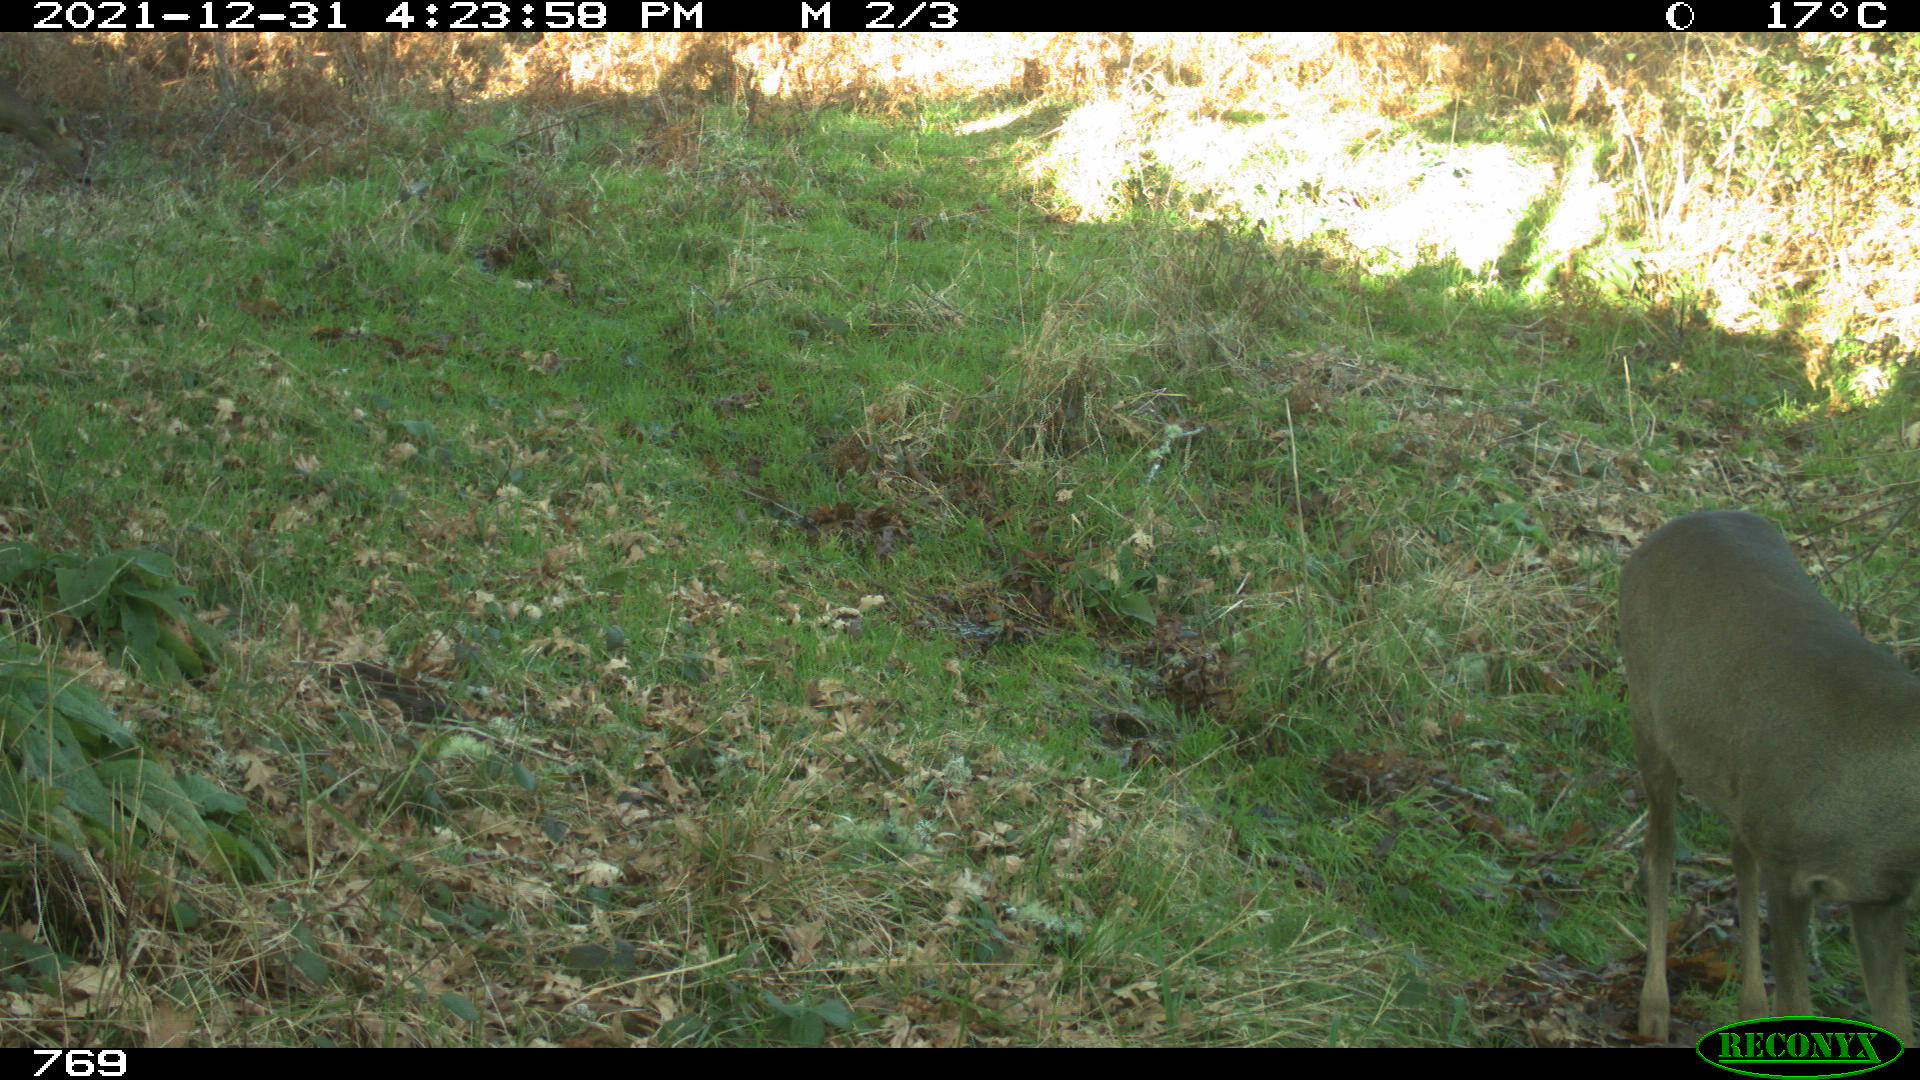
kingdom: Animalia
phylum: Chordata
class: Mammalia
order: Artiodactyla
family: Cervidae
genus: Capreolus
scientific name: Capreolus capreolus
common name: Western roe deer
